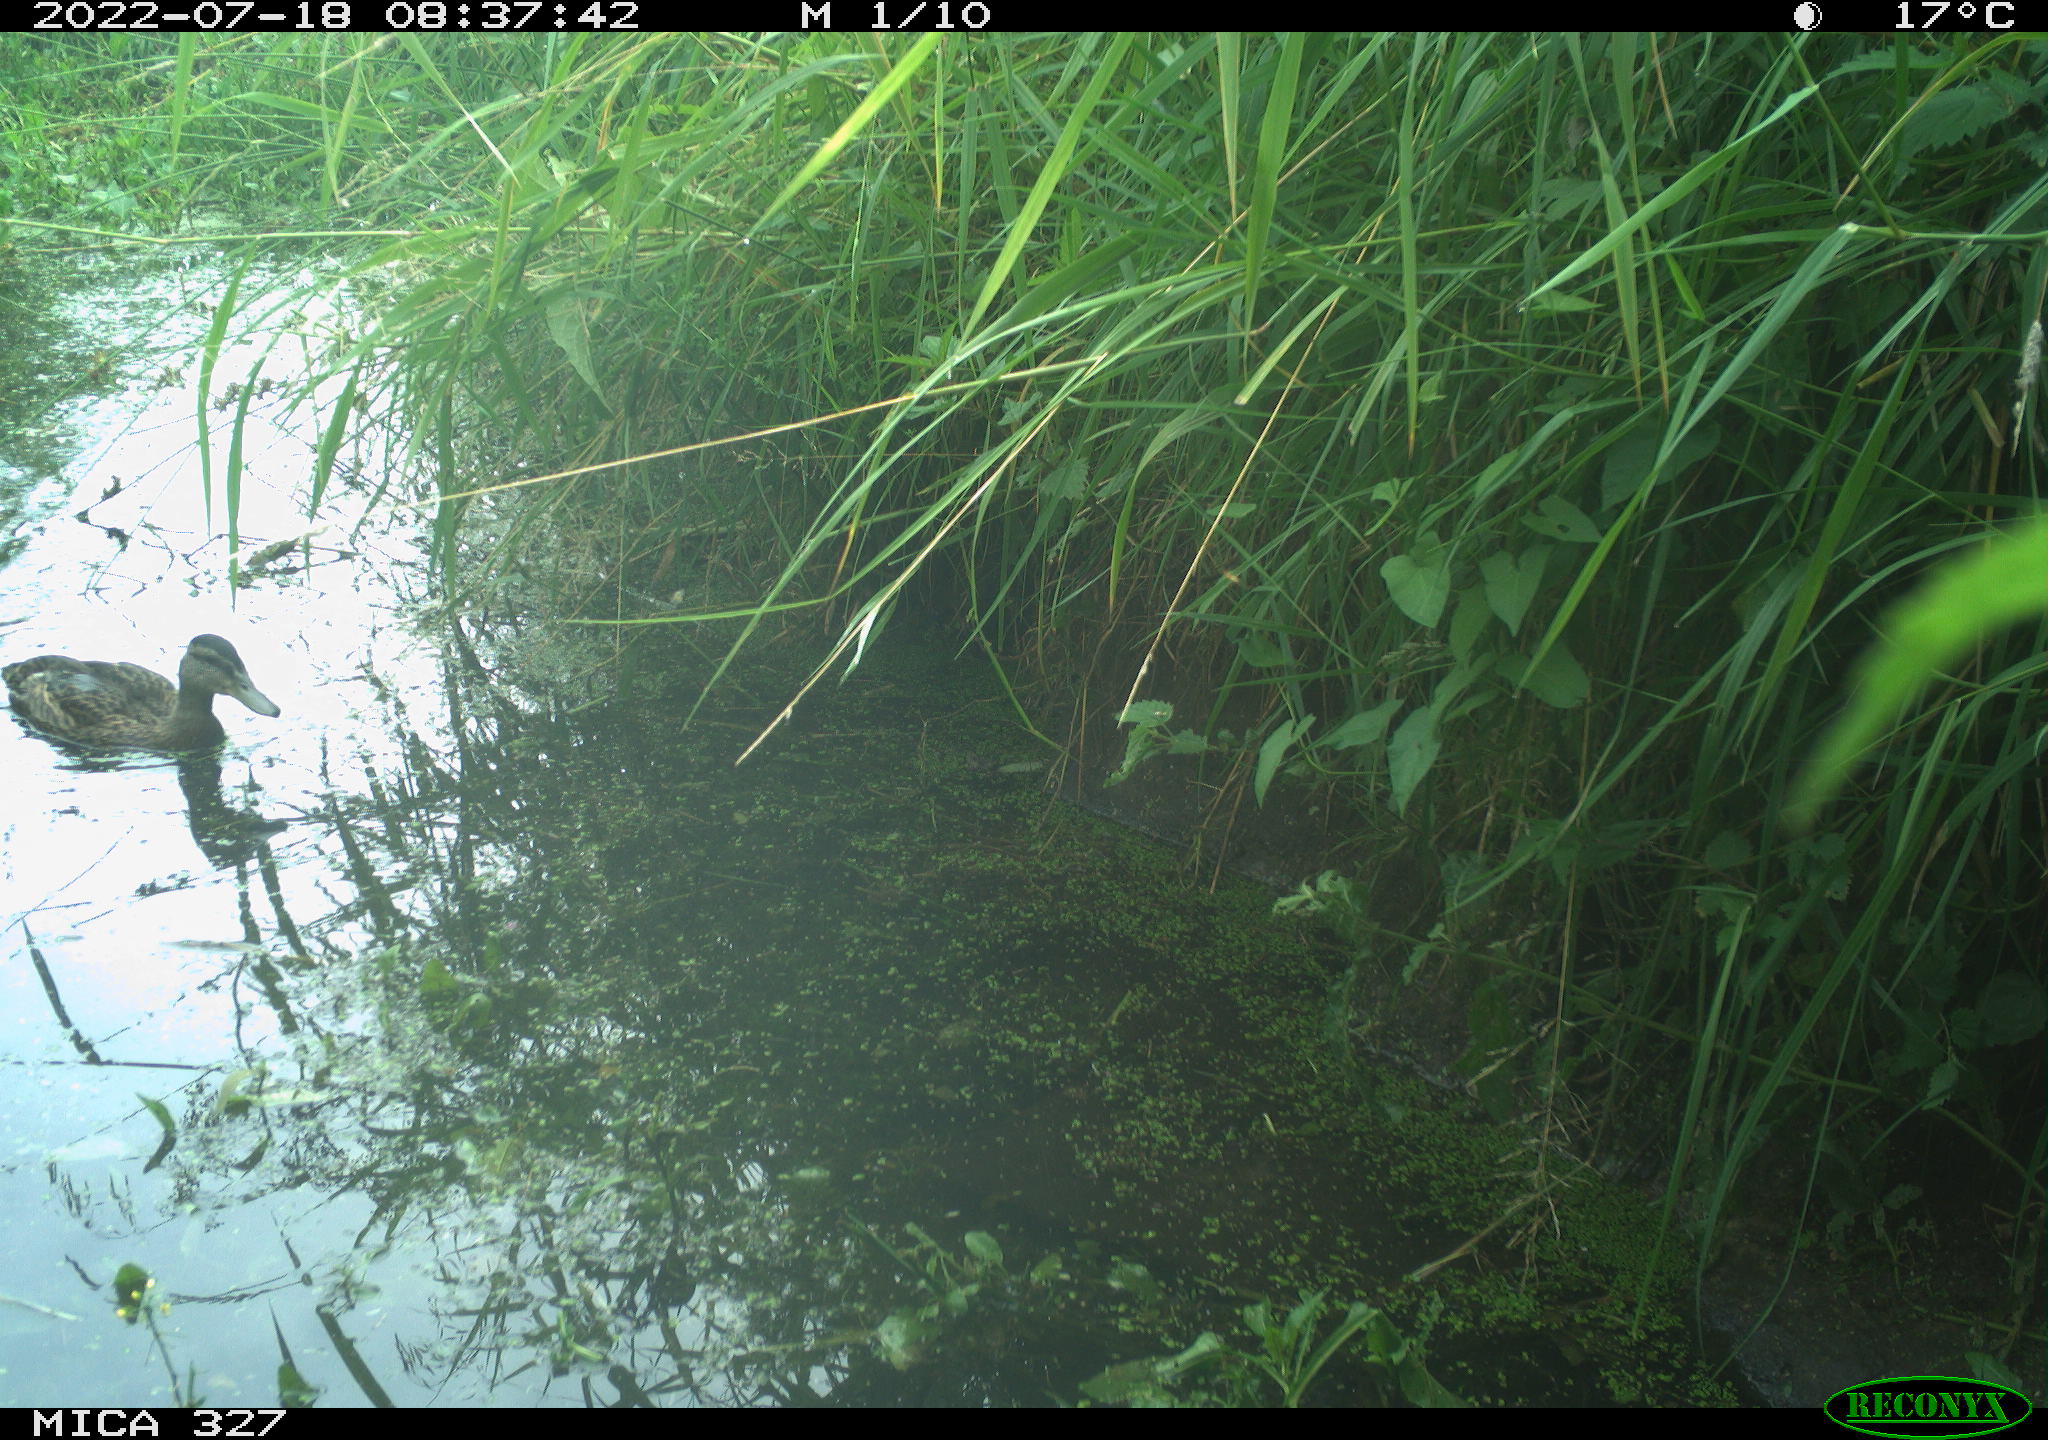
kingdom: Animalia
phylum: Chordata
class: Aves
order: Anseriformes
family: Anatidae
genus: Anas
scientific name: Anas
